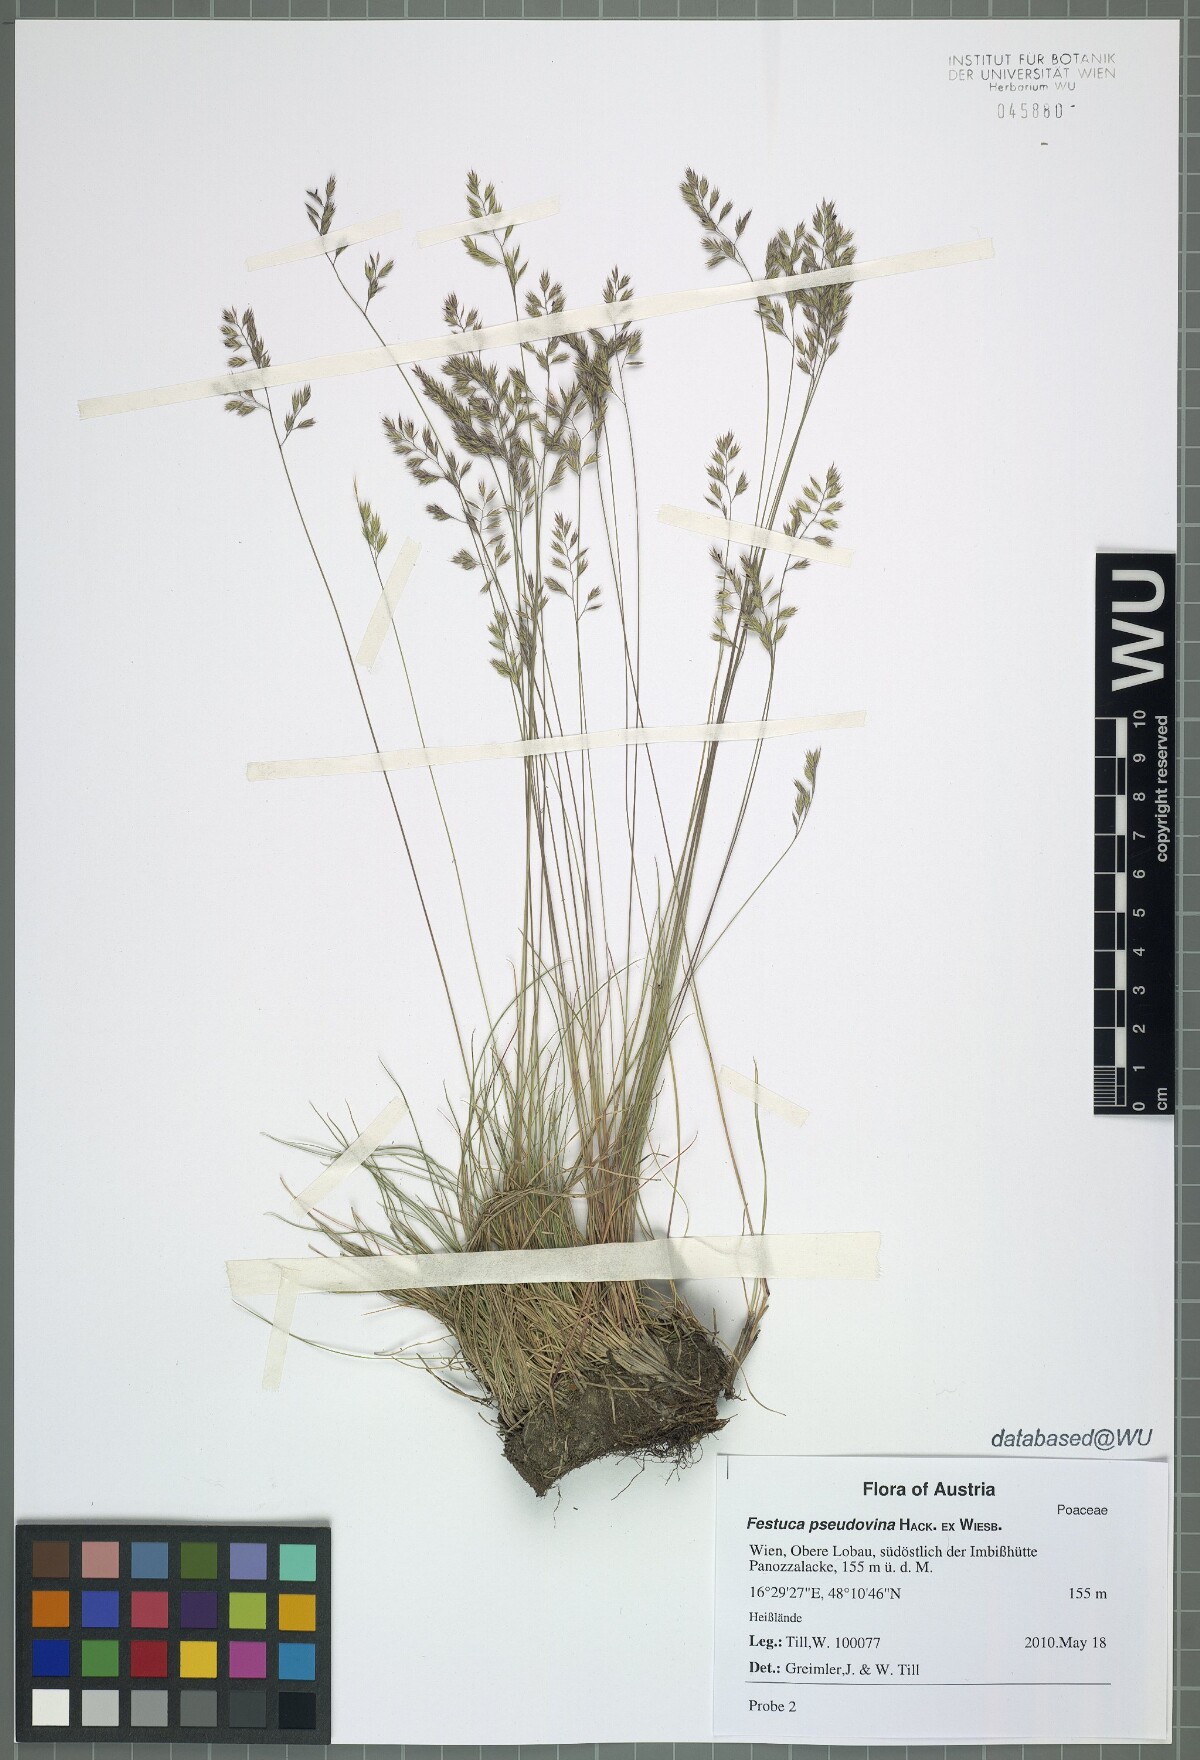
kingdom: Plantae
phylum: Tracheophyta
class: Liliopsida
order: Poales
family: Poaceae
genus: Festuca
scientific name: Festuca pulchra
